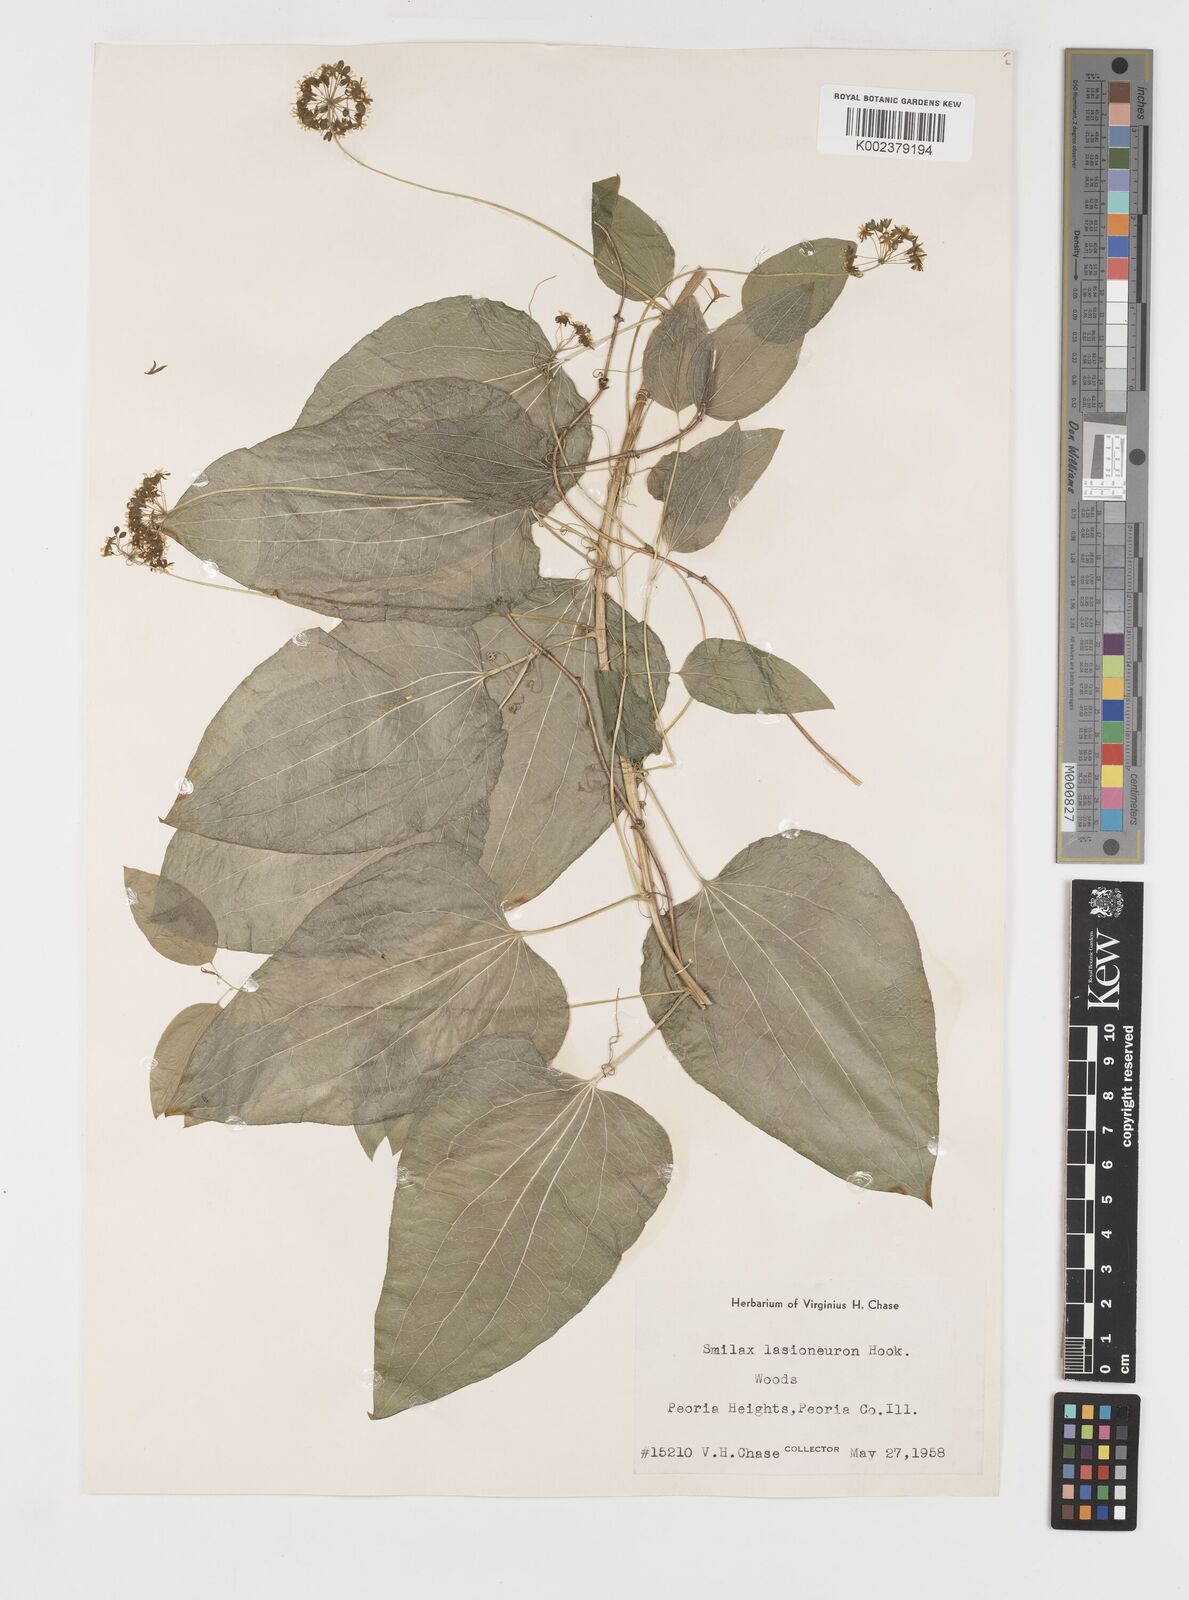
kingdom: Plantae
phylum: Tracheophyta
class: Liliopsida
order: Liliales
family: Smilacaceae
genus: Smilax
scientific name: Smilax lasioneura
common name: Blue ridge carrionflower
